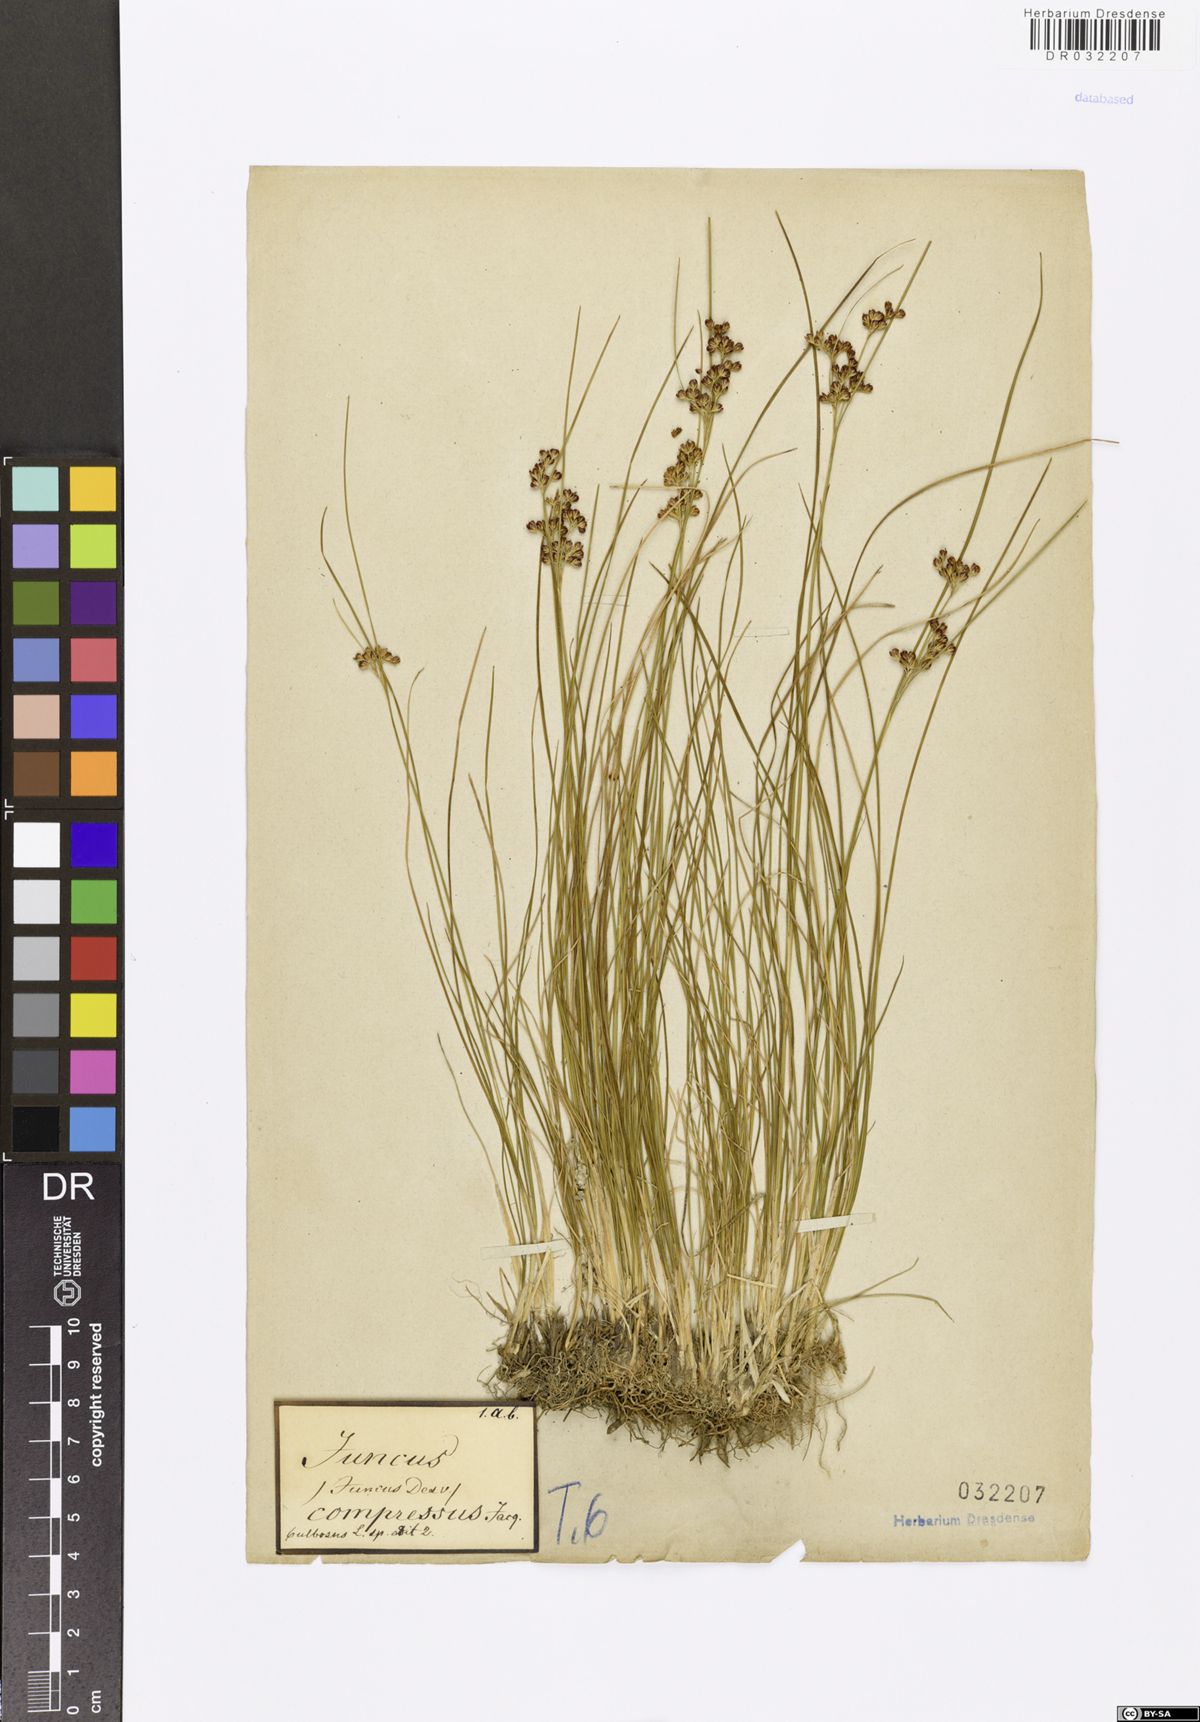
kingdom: Plantae
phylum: Tracheophyta
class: Liliopsida
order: Poales
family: Juncaceae
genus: Juncus
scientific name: Juncus compressus
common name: Round-fruited rush
